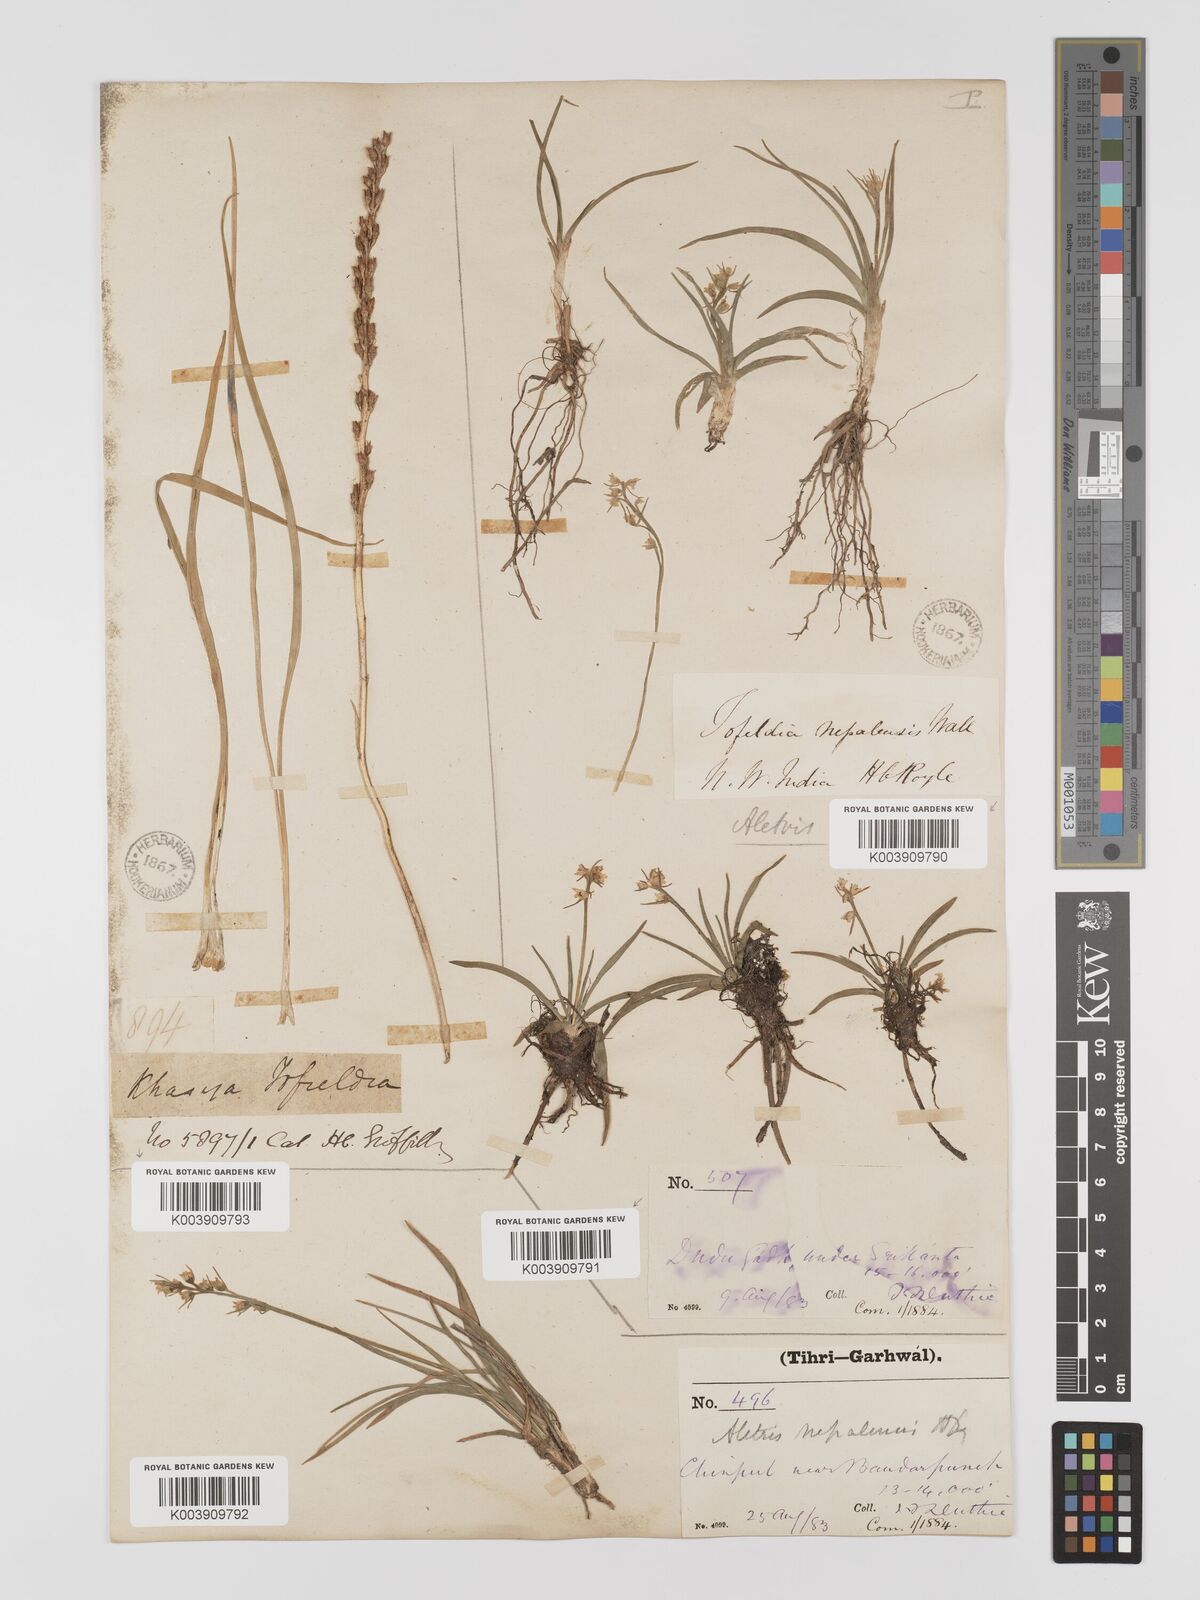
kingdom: Plantae
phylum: Tracheophyta
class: Liliopsida
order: Dioscoreales
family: Nartheciaceae
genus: Aletris
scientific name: Aletris pauciflora
